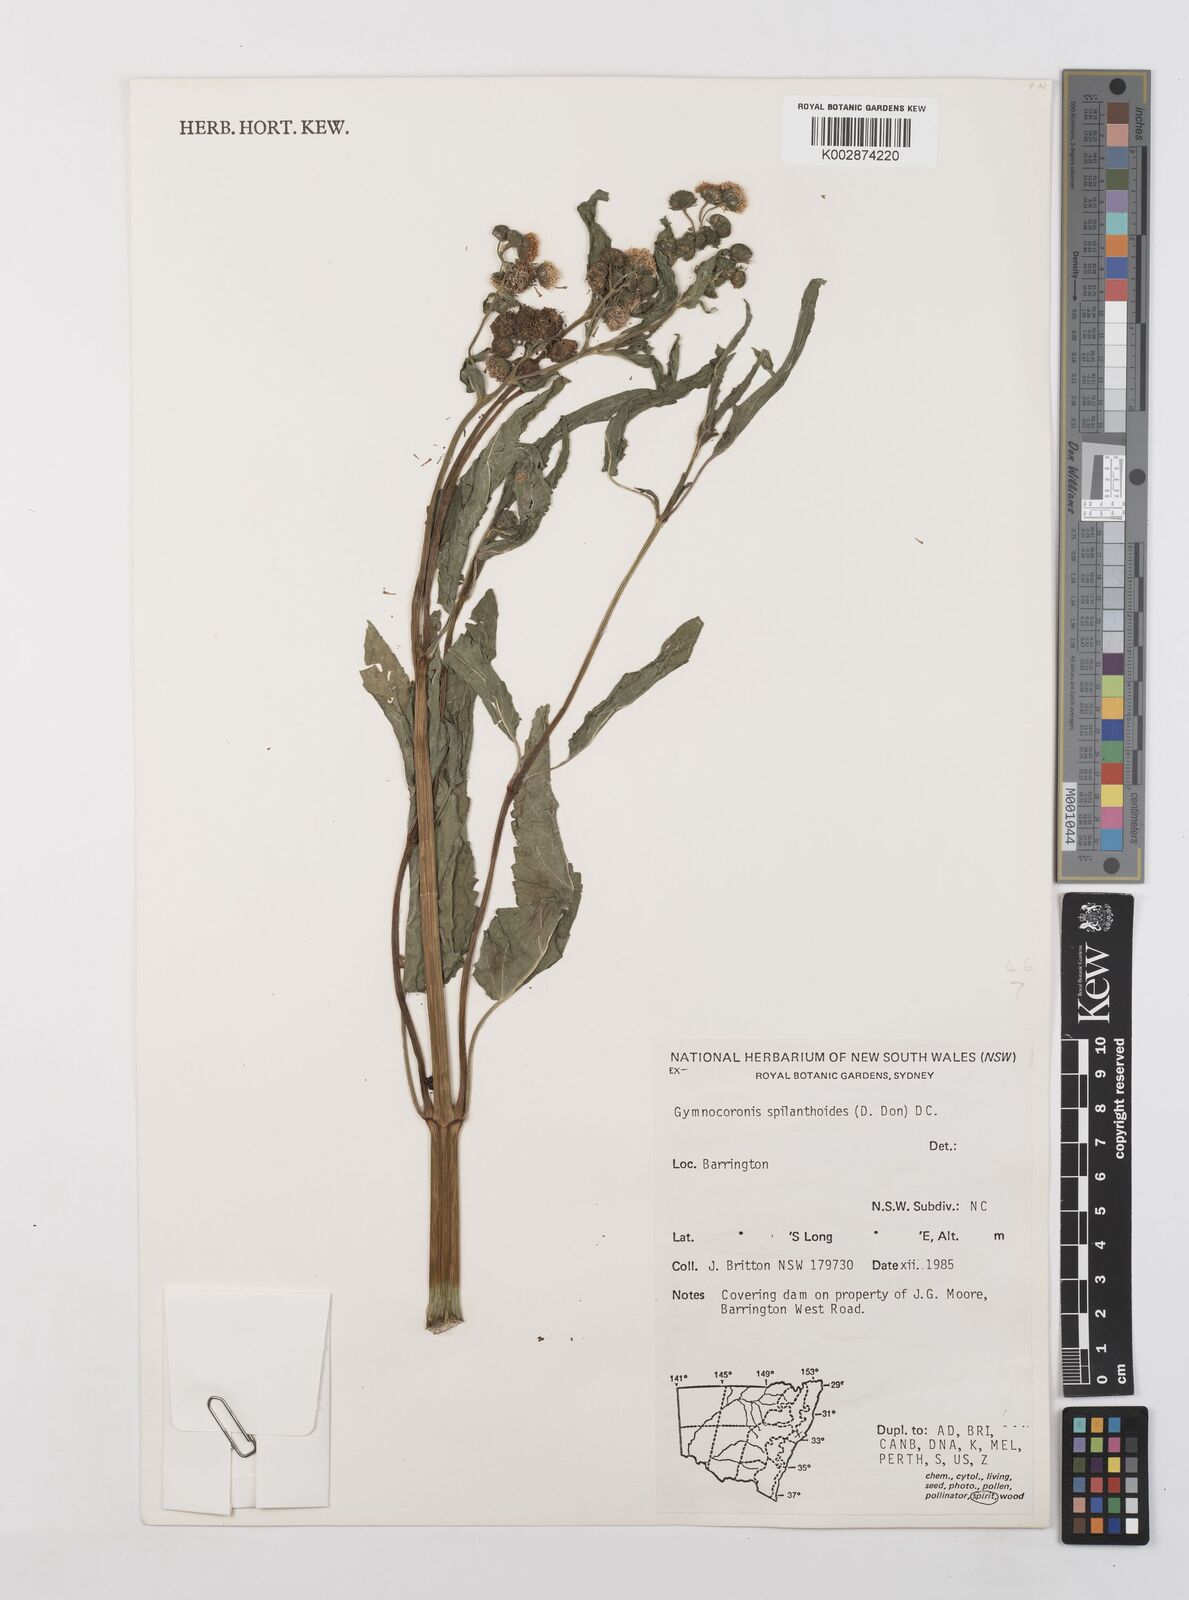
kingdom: Plantae
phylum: Tracheophyta
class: Magnoliopsida
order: Asterales
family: Asteraceae
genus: Gymnocoronis
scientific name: Gymnocoronis spilanthoides
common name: Senegal teaplant
